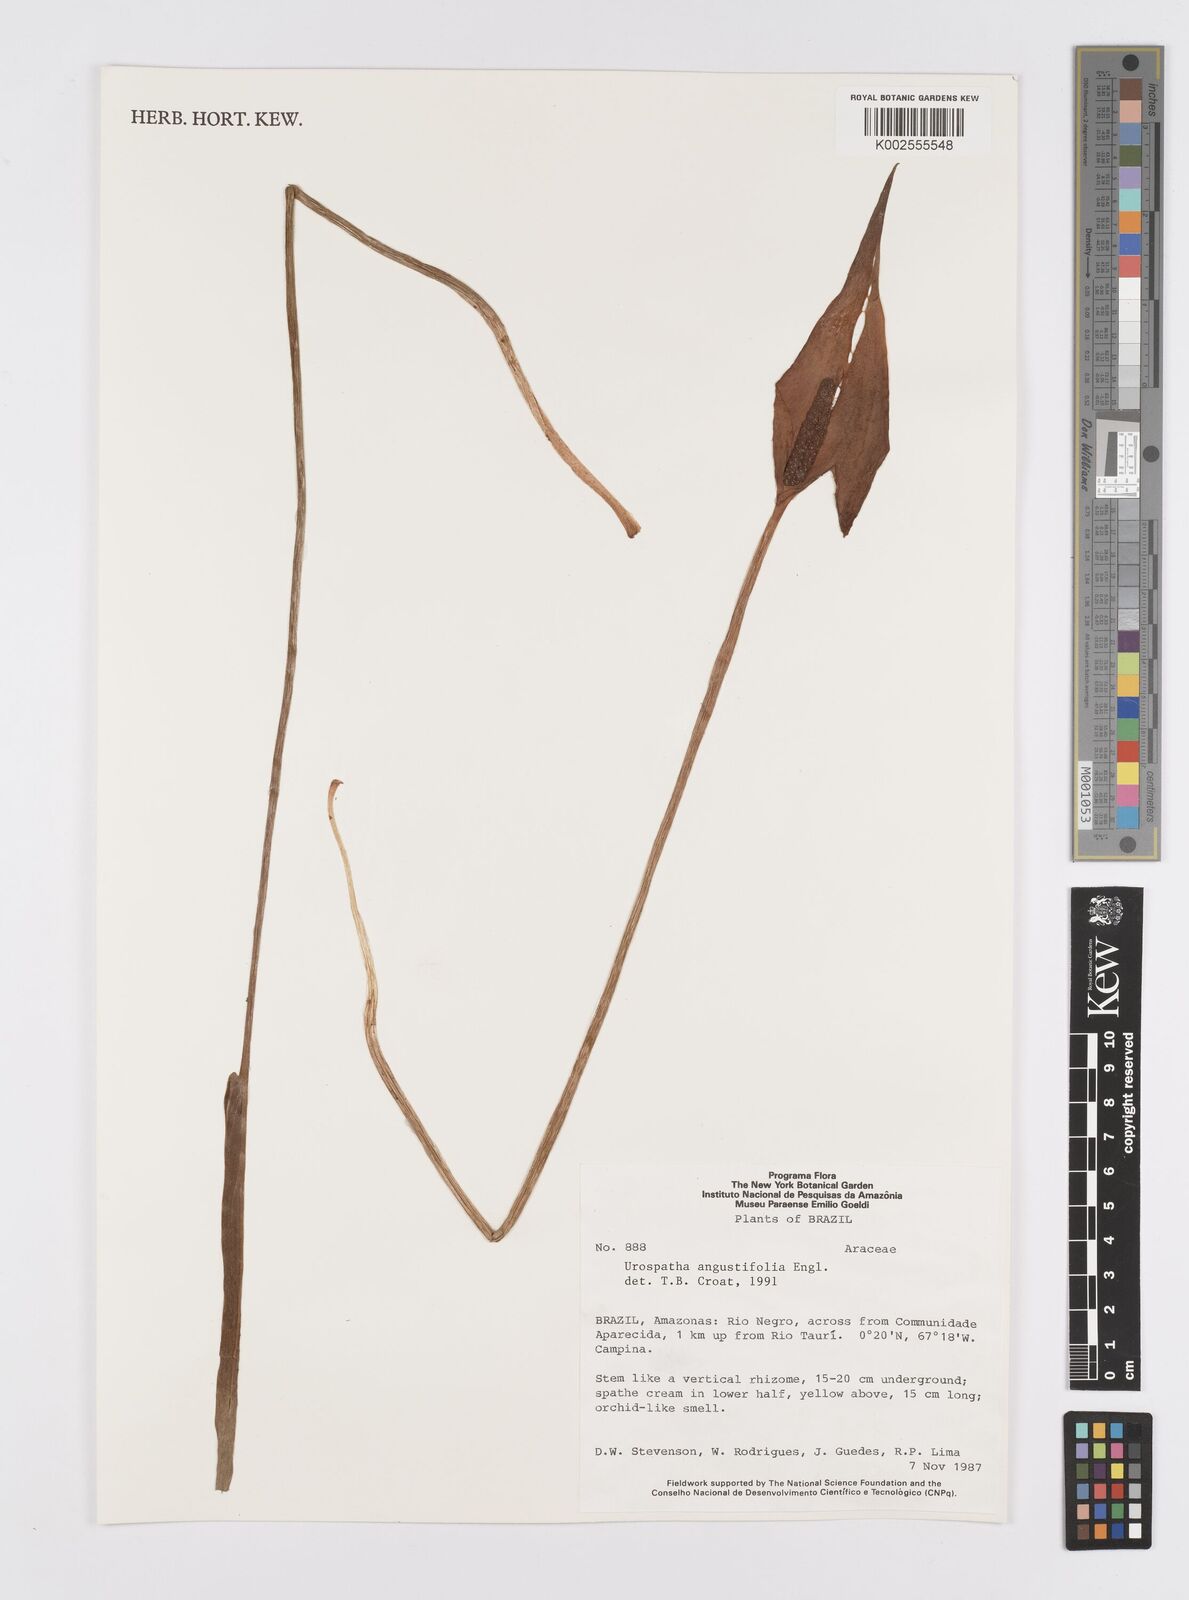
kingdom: Plantae
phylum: Tracheophyta
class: Liliopsida
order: Alismatales
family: Araceae
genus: Urospatha
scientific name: Urospatha angustiloba
